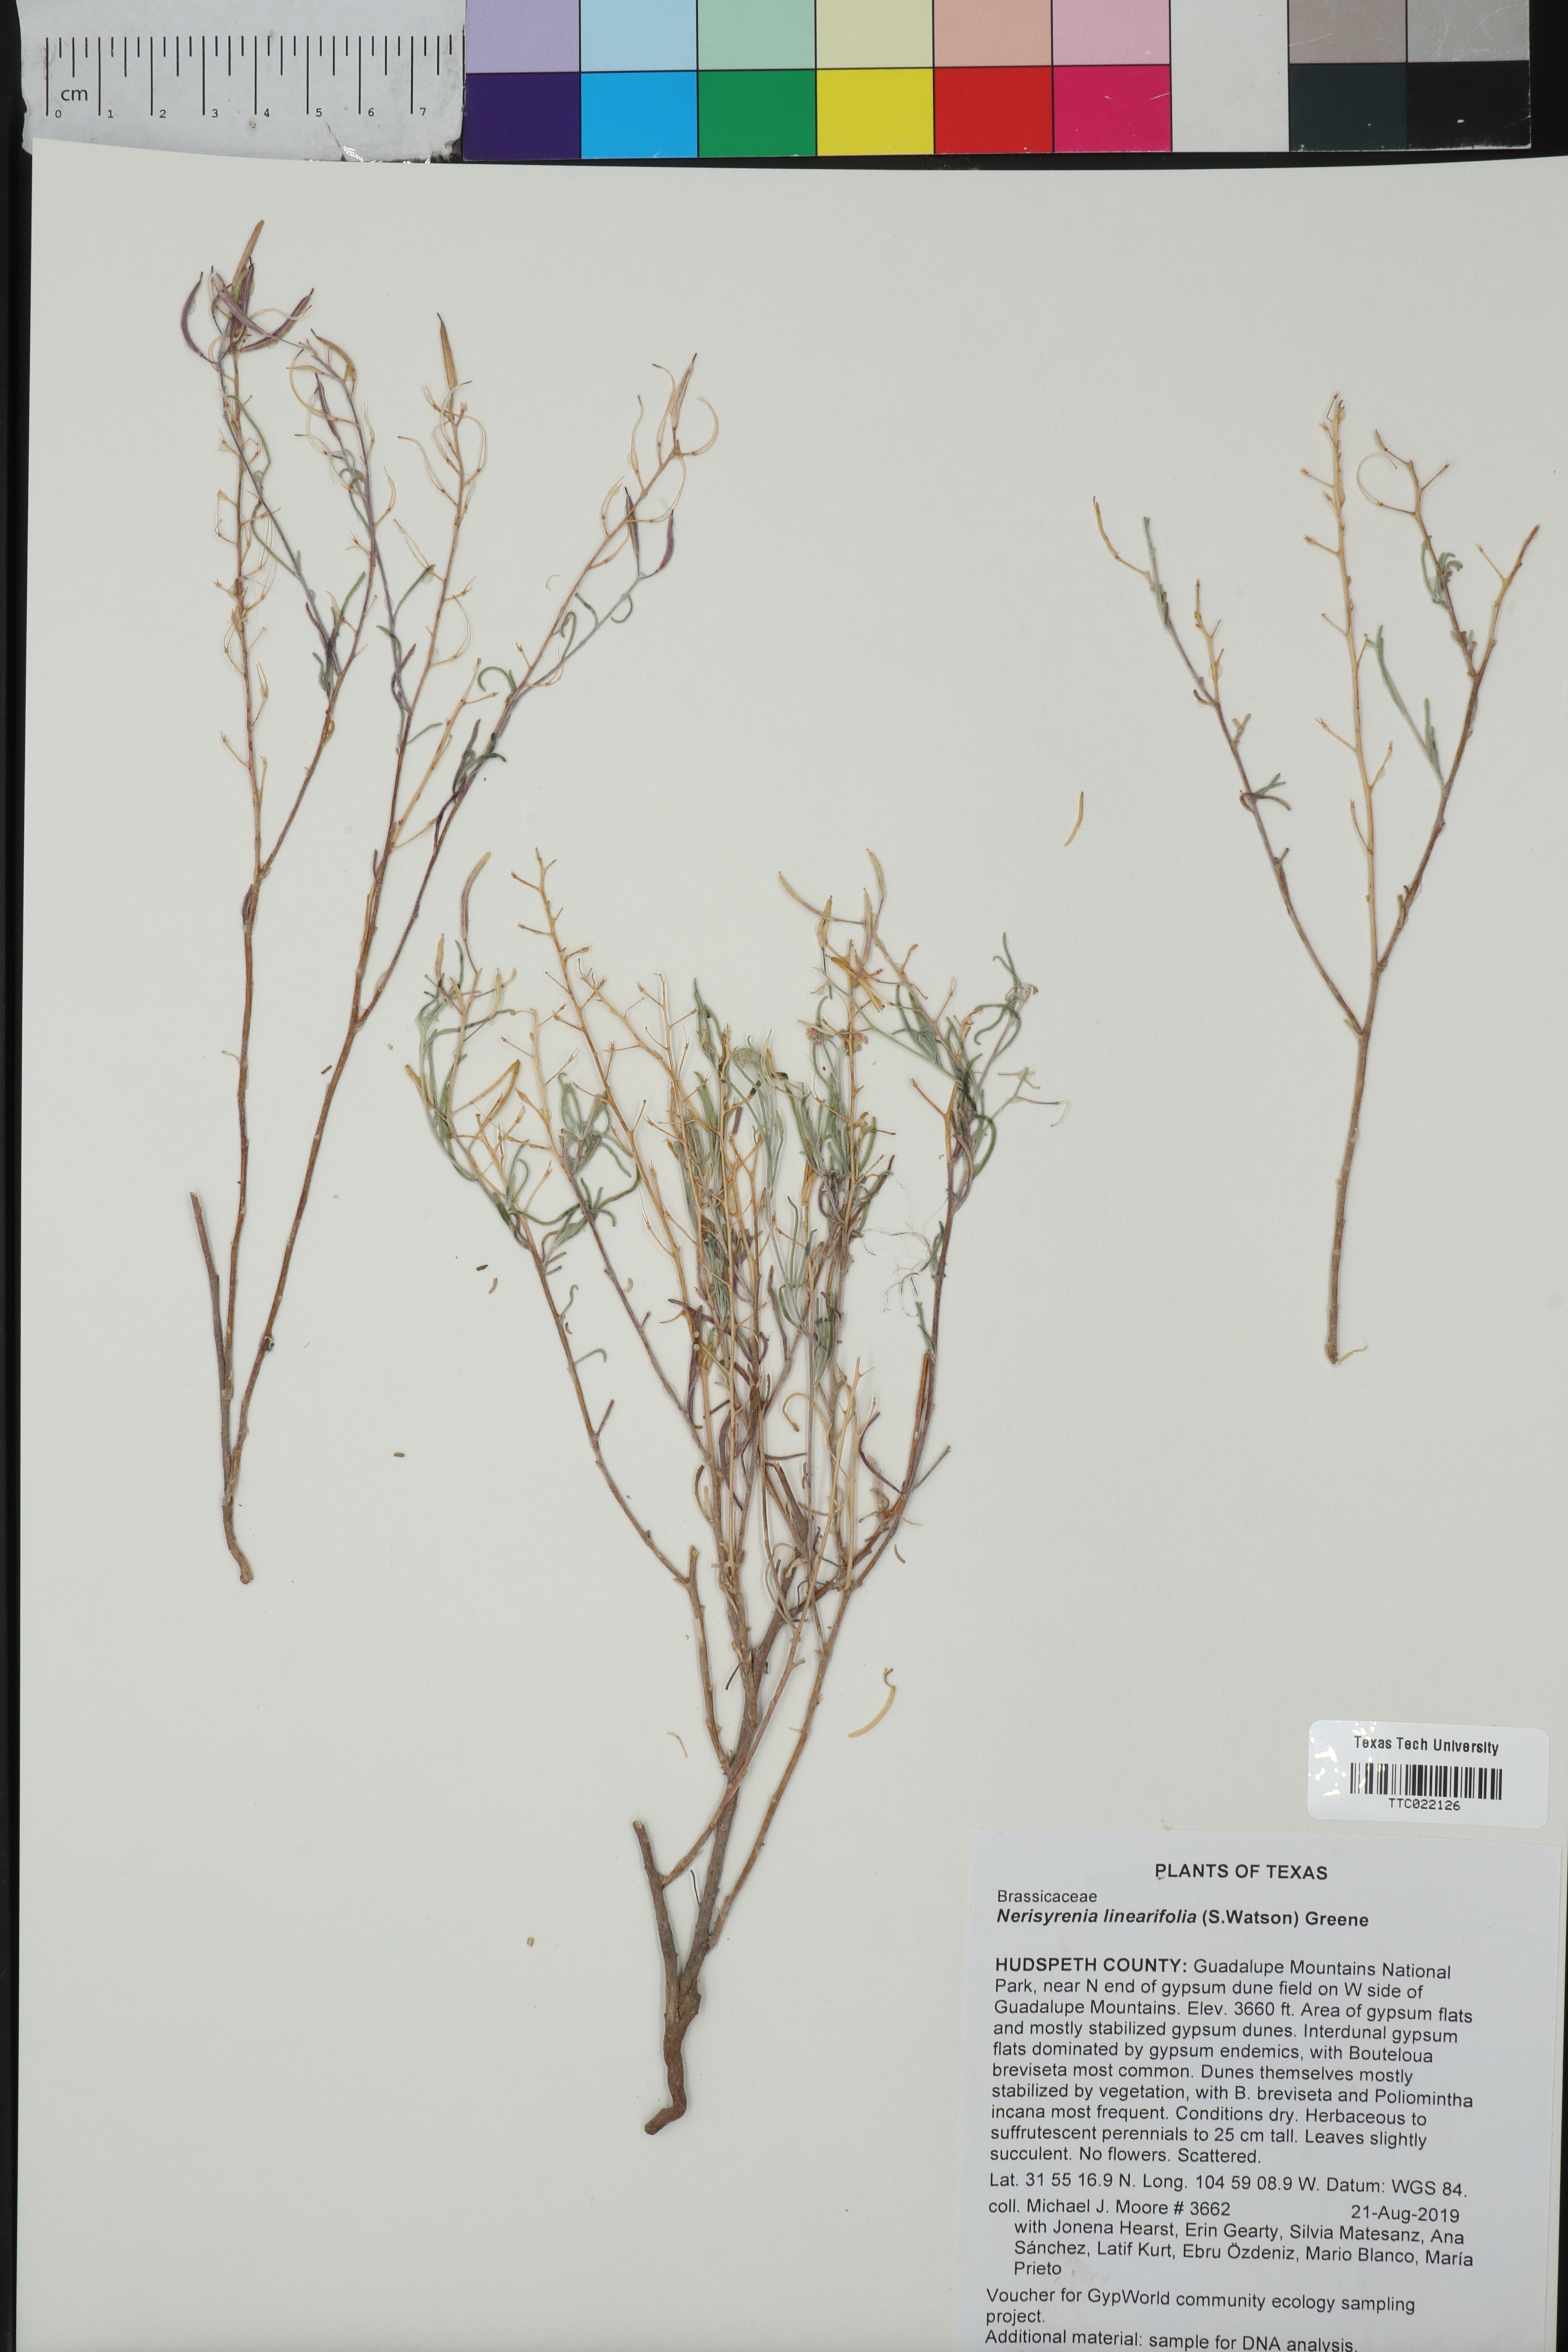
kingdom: Plantae
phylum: Tracheophyta
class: Magnoliopsida
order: Brassicales
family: Brassicaceae
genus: Nerisyrenia
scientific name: Nerisyrenia linearifolia
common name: White sands fan mustard
